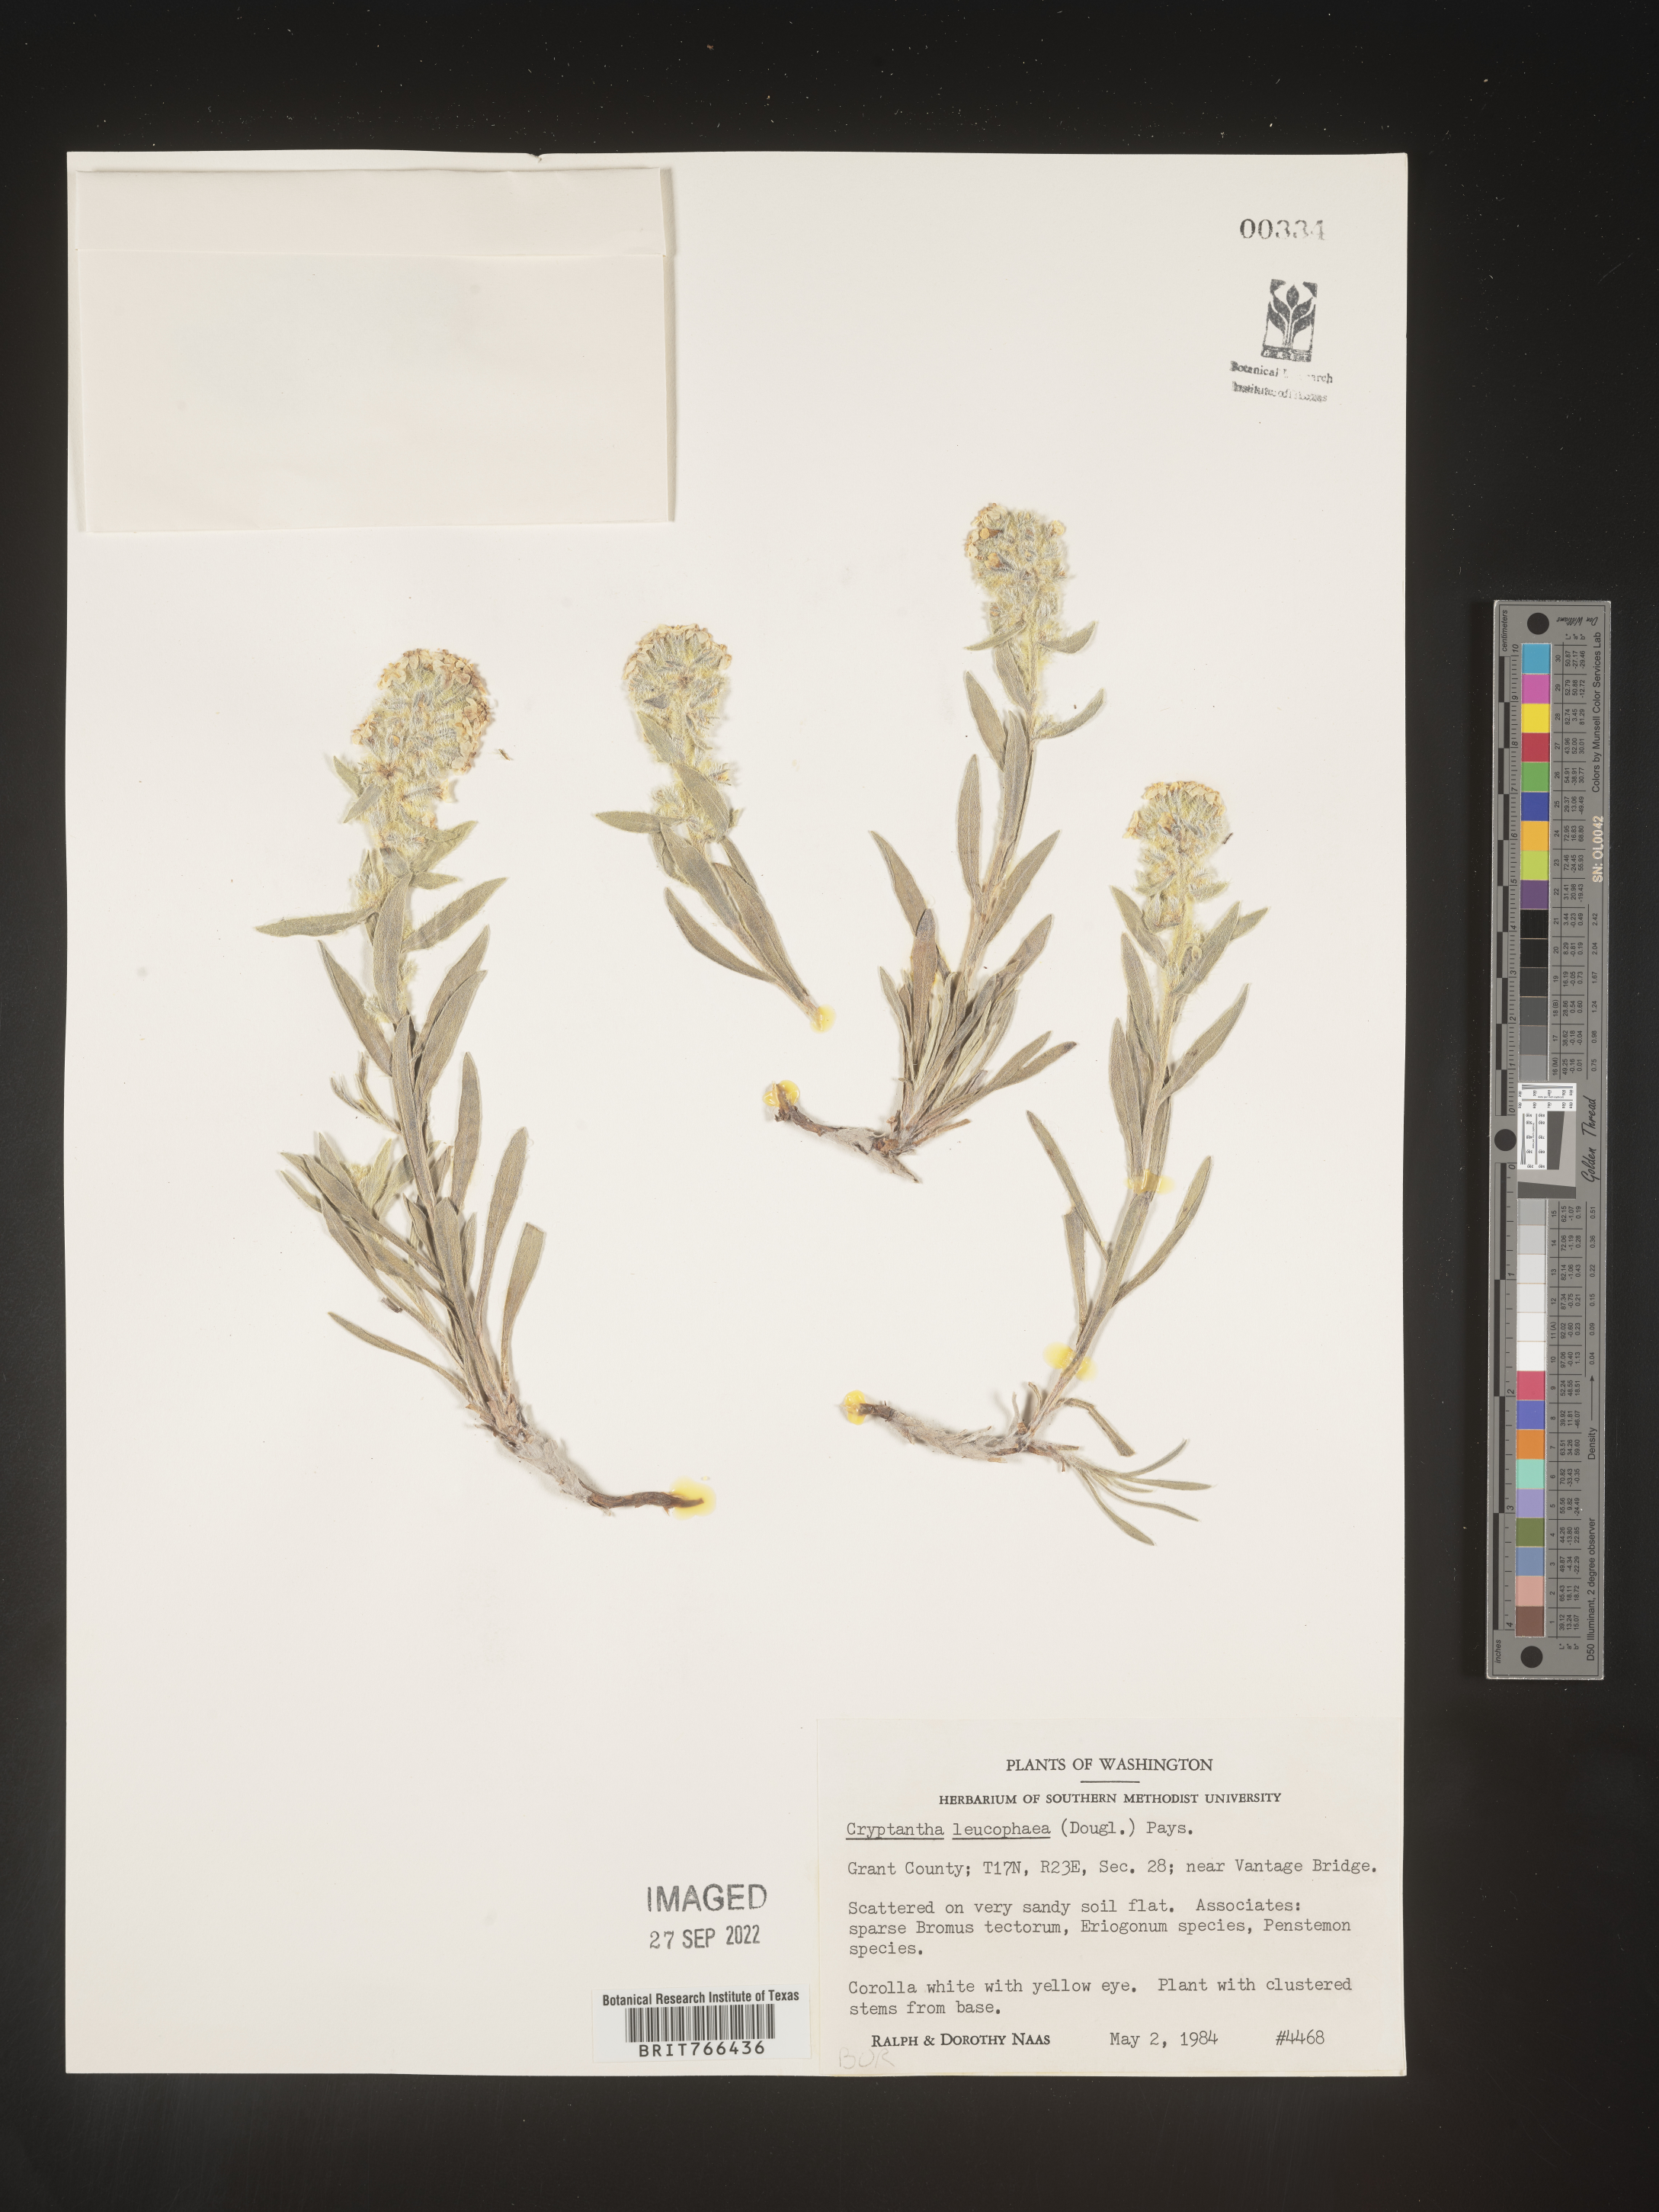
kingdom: Plantae
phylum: Tracheophyta
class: Magnoliopsida
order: Boraginales
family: Boraginaceae
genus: Cryptantha
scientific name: Cryptantha
